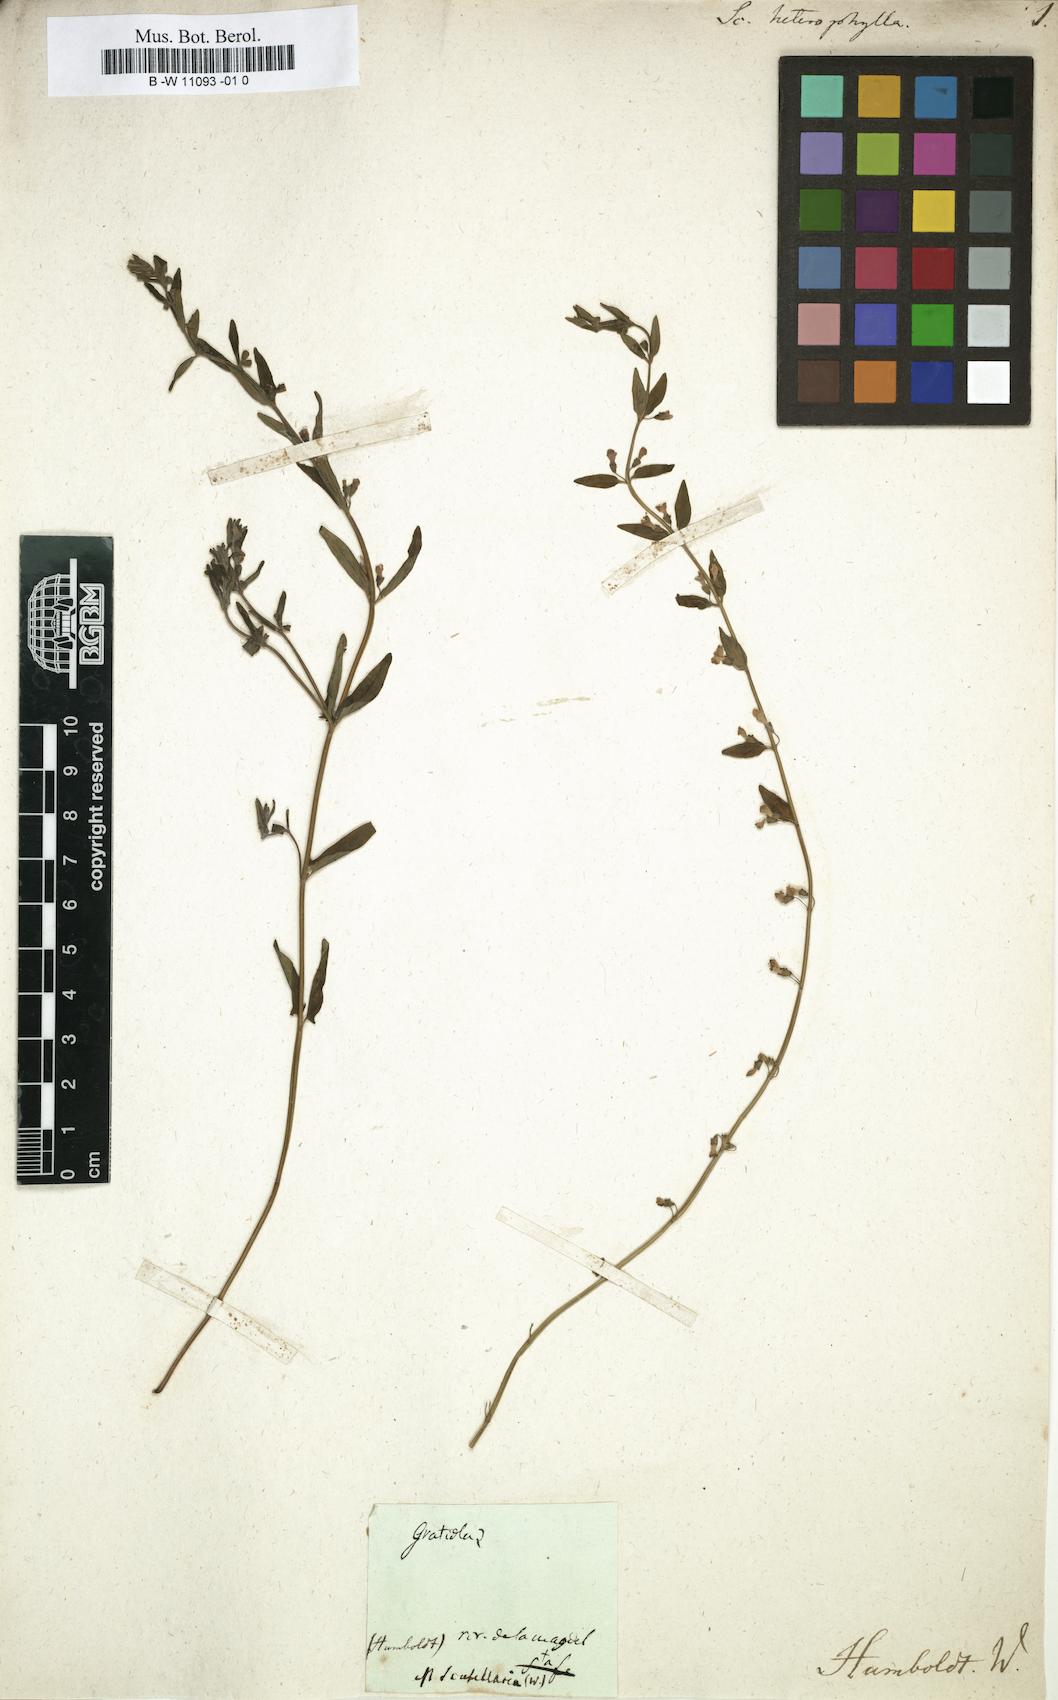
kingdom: Plantae
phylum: Tracheophyta
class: Magnoliopsida
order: Lamiales
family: Lamiaceae
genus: Scutellaria
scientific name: Scutellaria heterophylla
